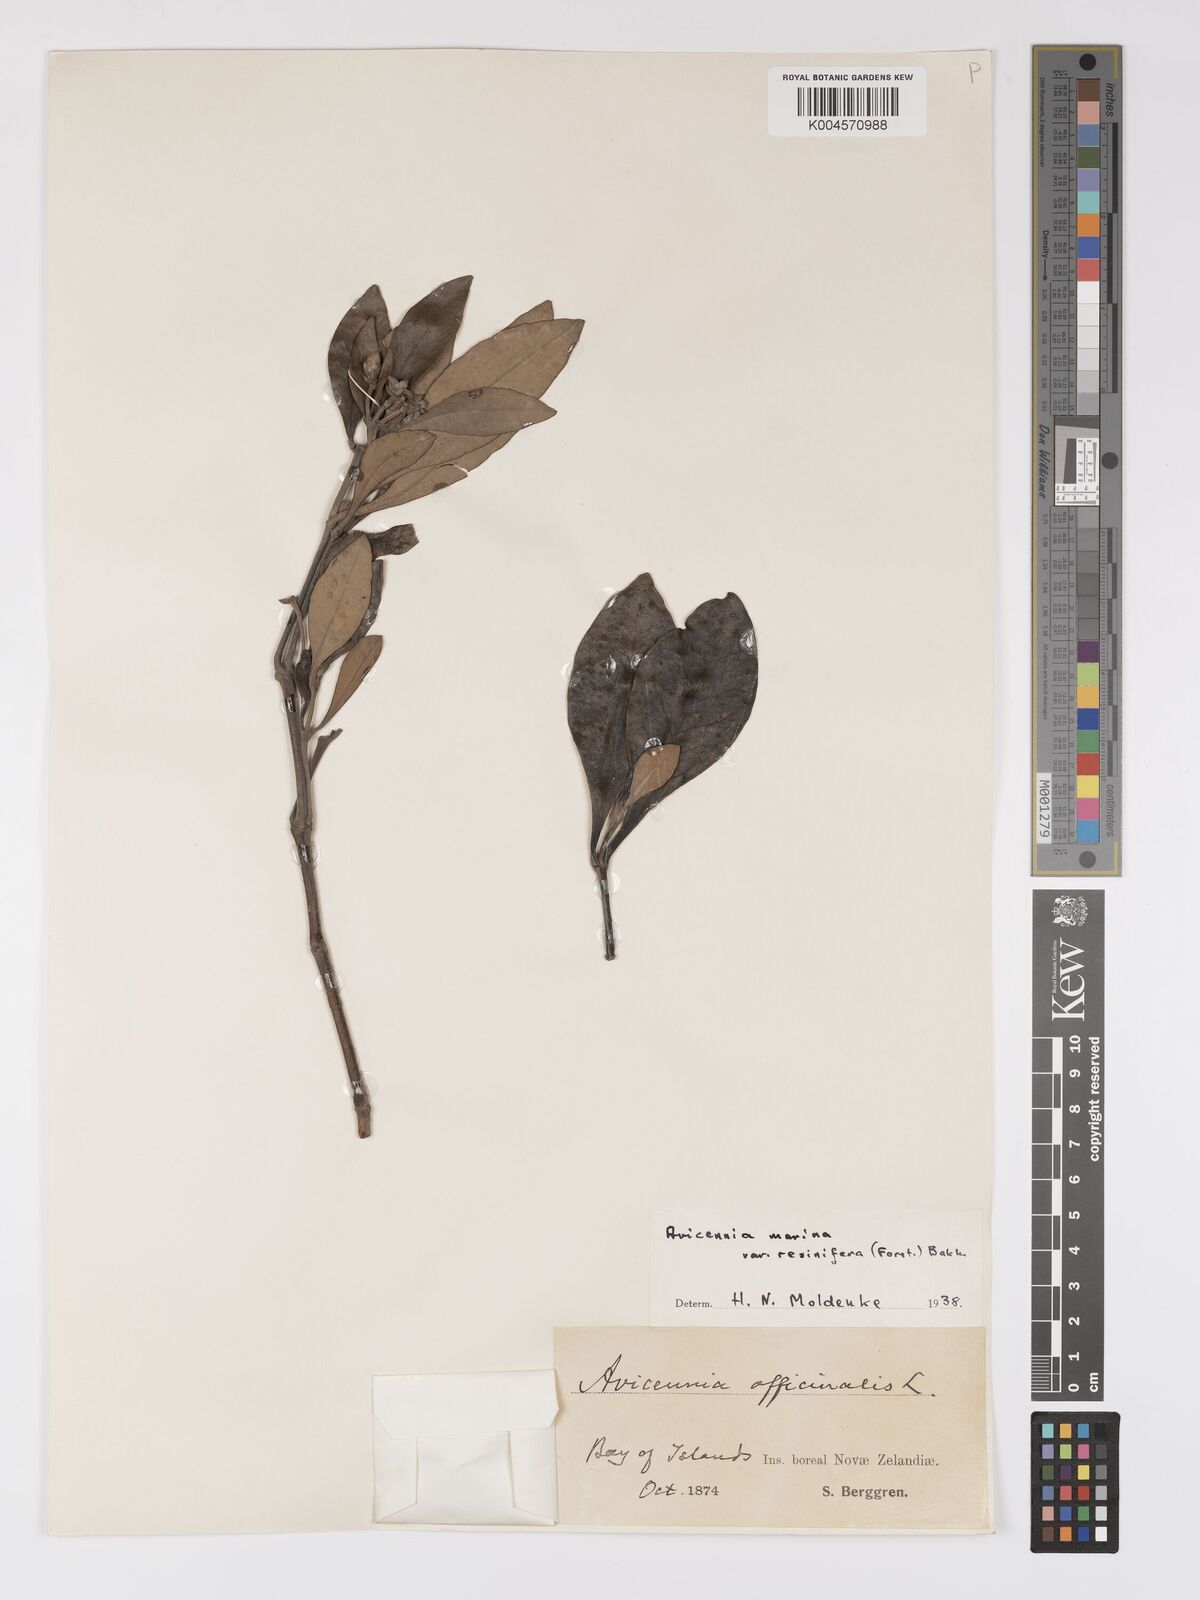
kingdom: Plantae
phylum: Tracheophyta
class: Magnoliopsida
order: Lamiales
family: Acanthaceae
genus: Avicennia
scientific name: Avicennia marina
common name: Gray mangrove
